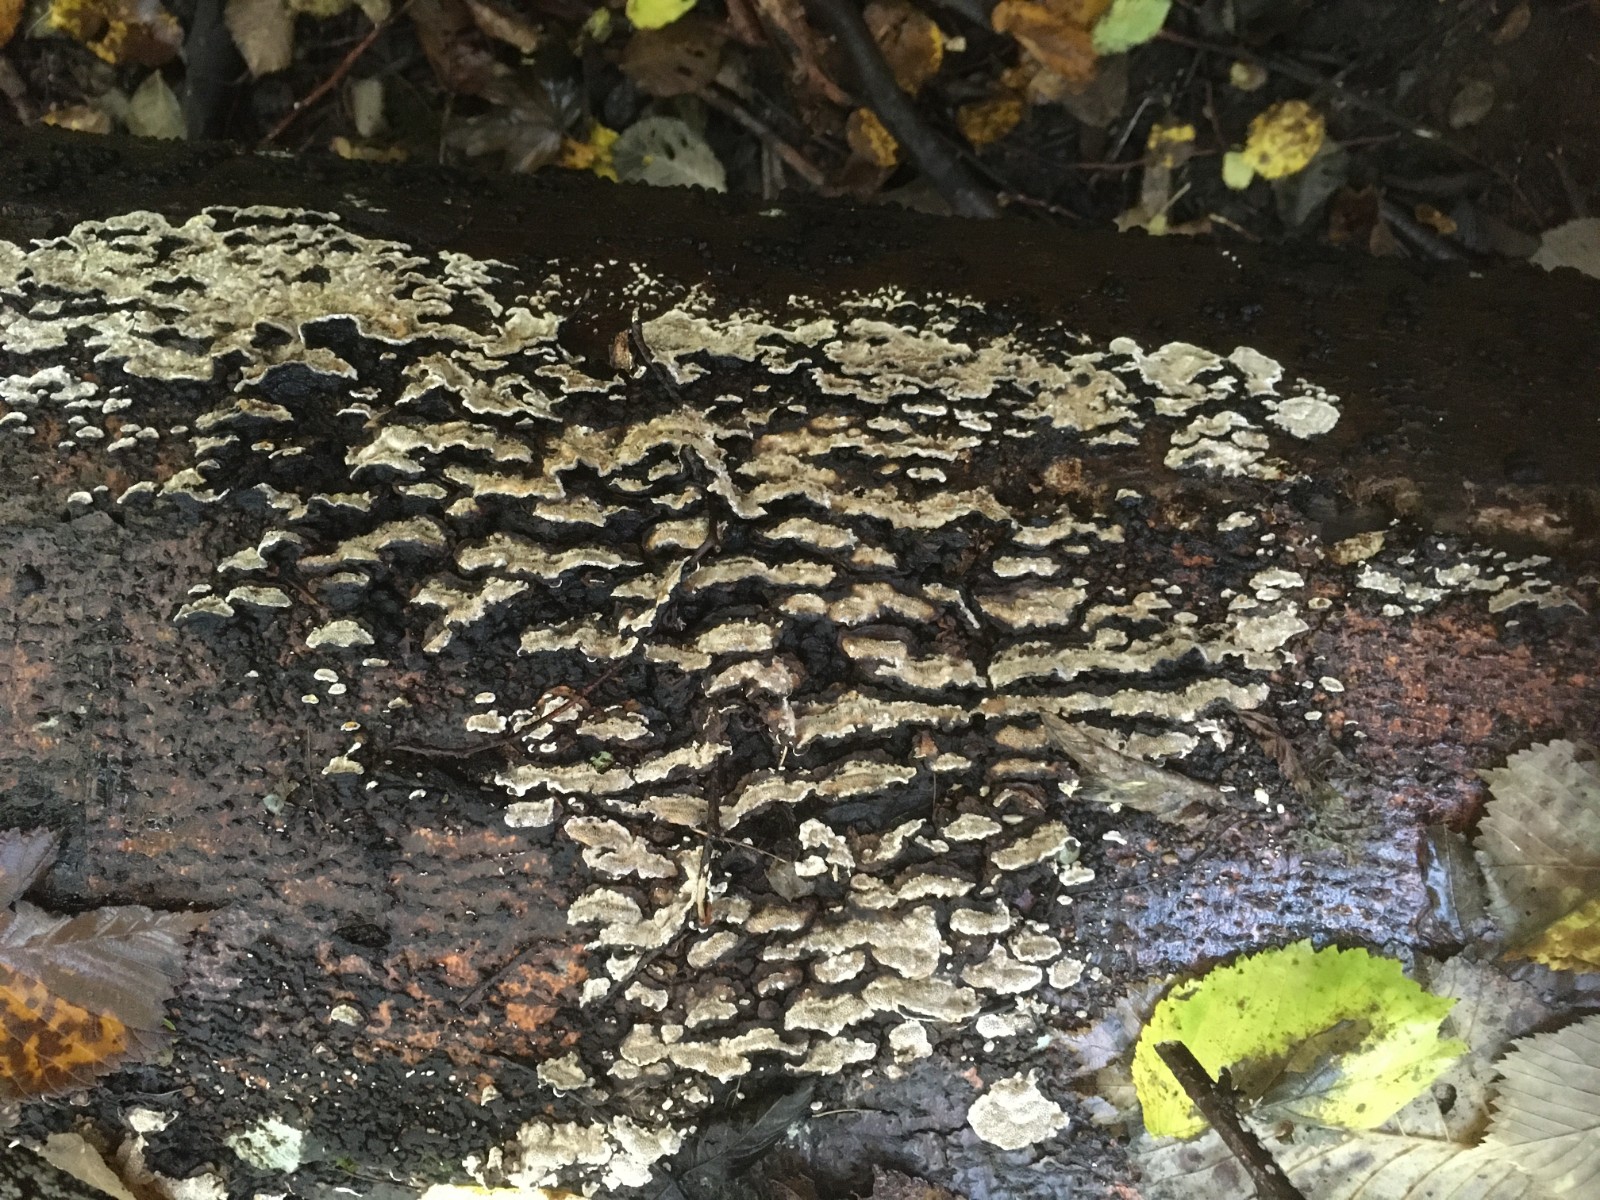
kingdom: Fungi
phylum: Basidiomycota
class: Agaricomycetes
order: Polyporales
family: Polyporaceae
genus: Podofomes
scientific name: Podofomes mollis
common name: blød begporesvamp
